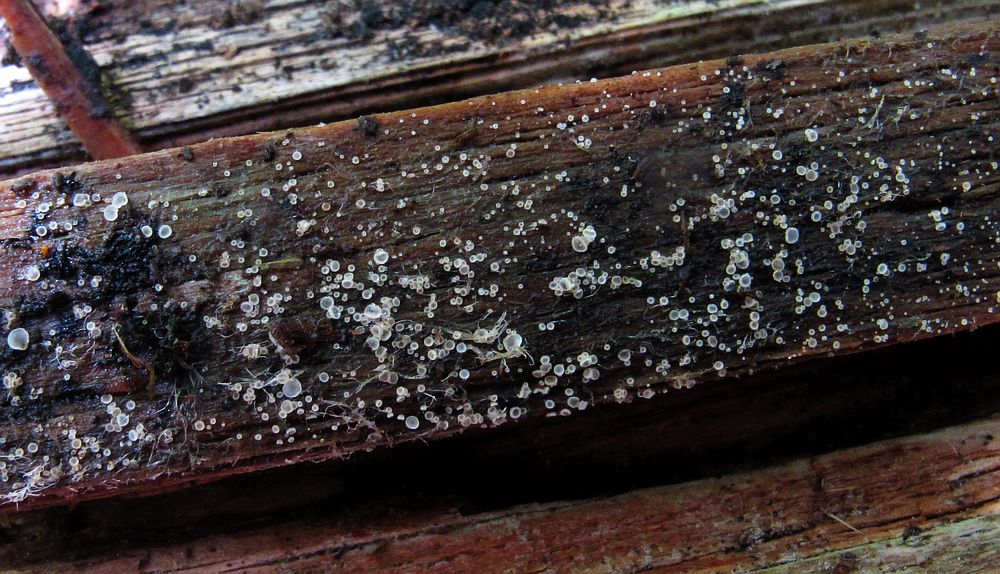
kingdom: Fungi
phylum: Ascomycota
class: Leotiomycetes
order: Helotiales
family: Hyaloscyphaceae
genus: Eupezizella
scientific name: Eupezizella aureliella
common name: almindelig klarskive
